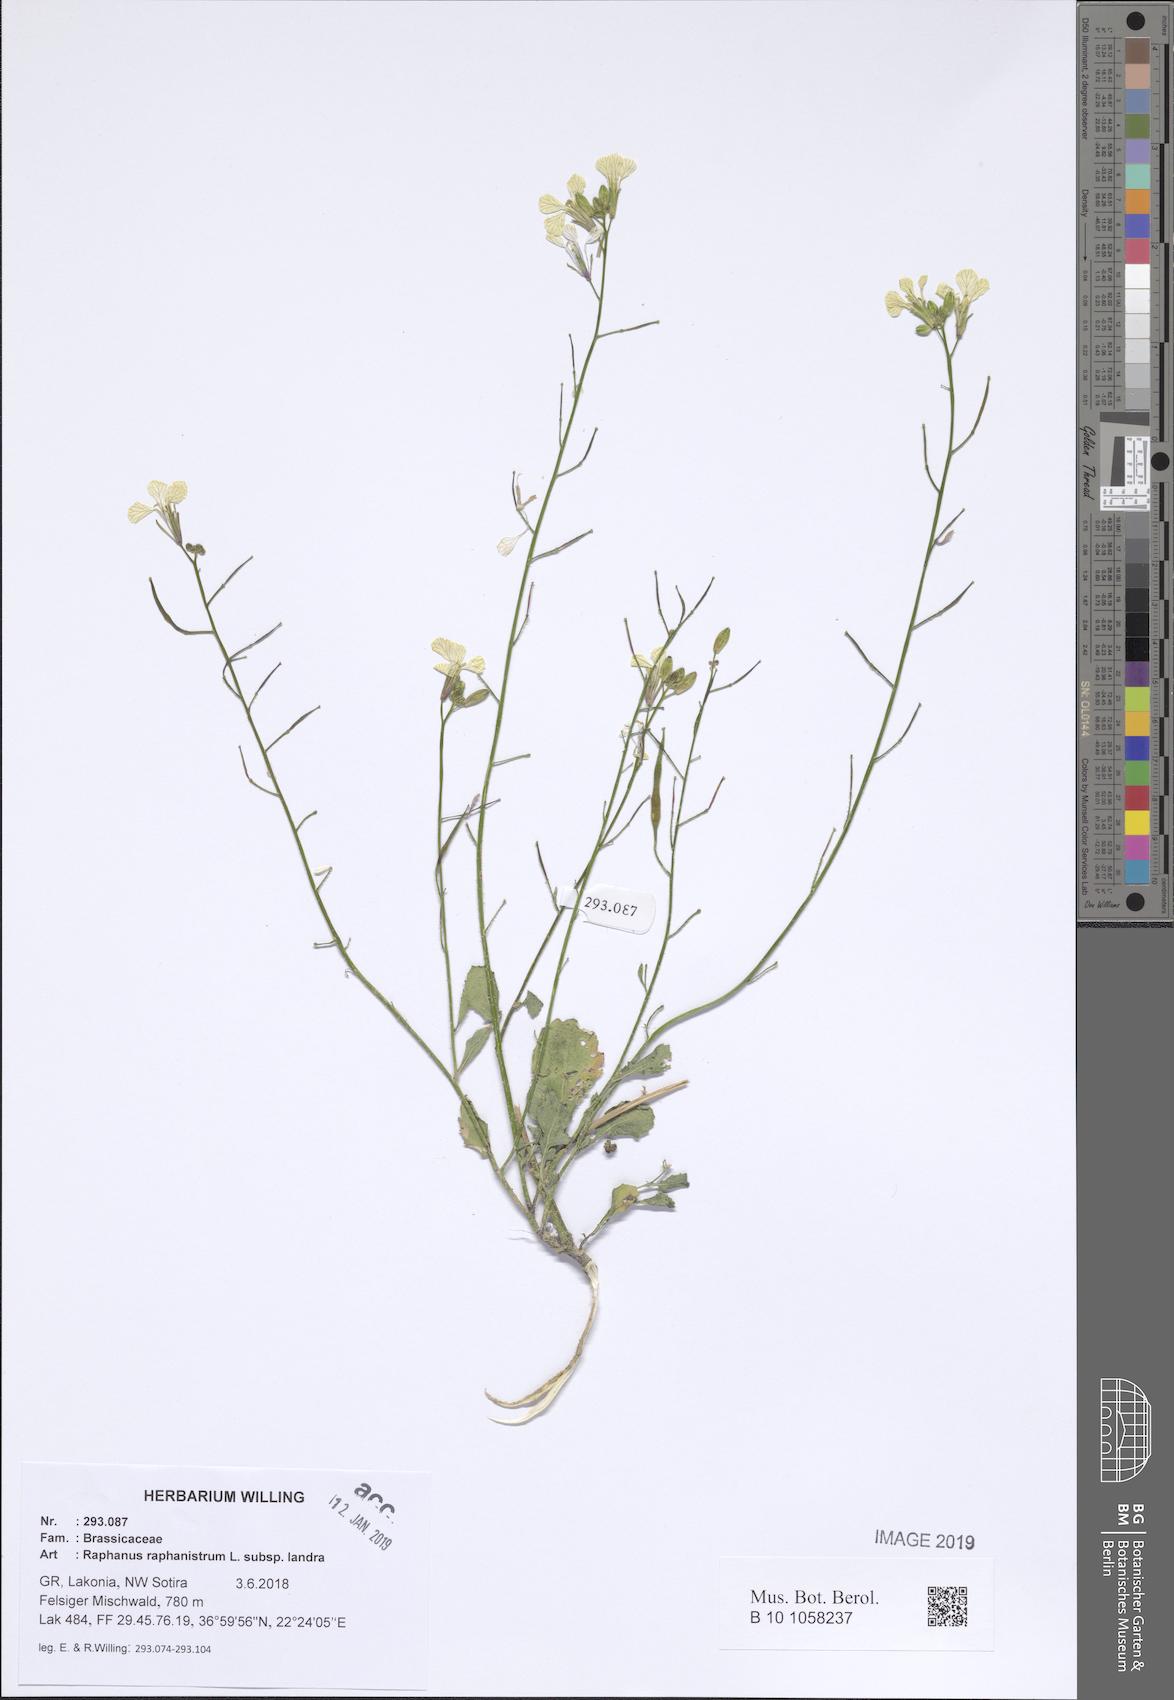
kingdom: Plantae
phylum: Tracheophyta
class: Magnoliopsida
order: Brassicales
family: Brassicaceae
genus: Raphanus
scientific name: Raphanus raphanistrum
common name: Wild radish
